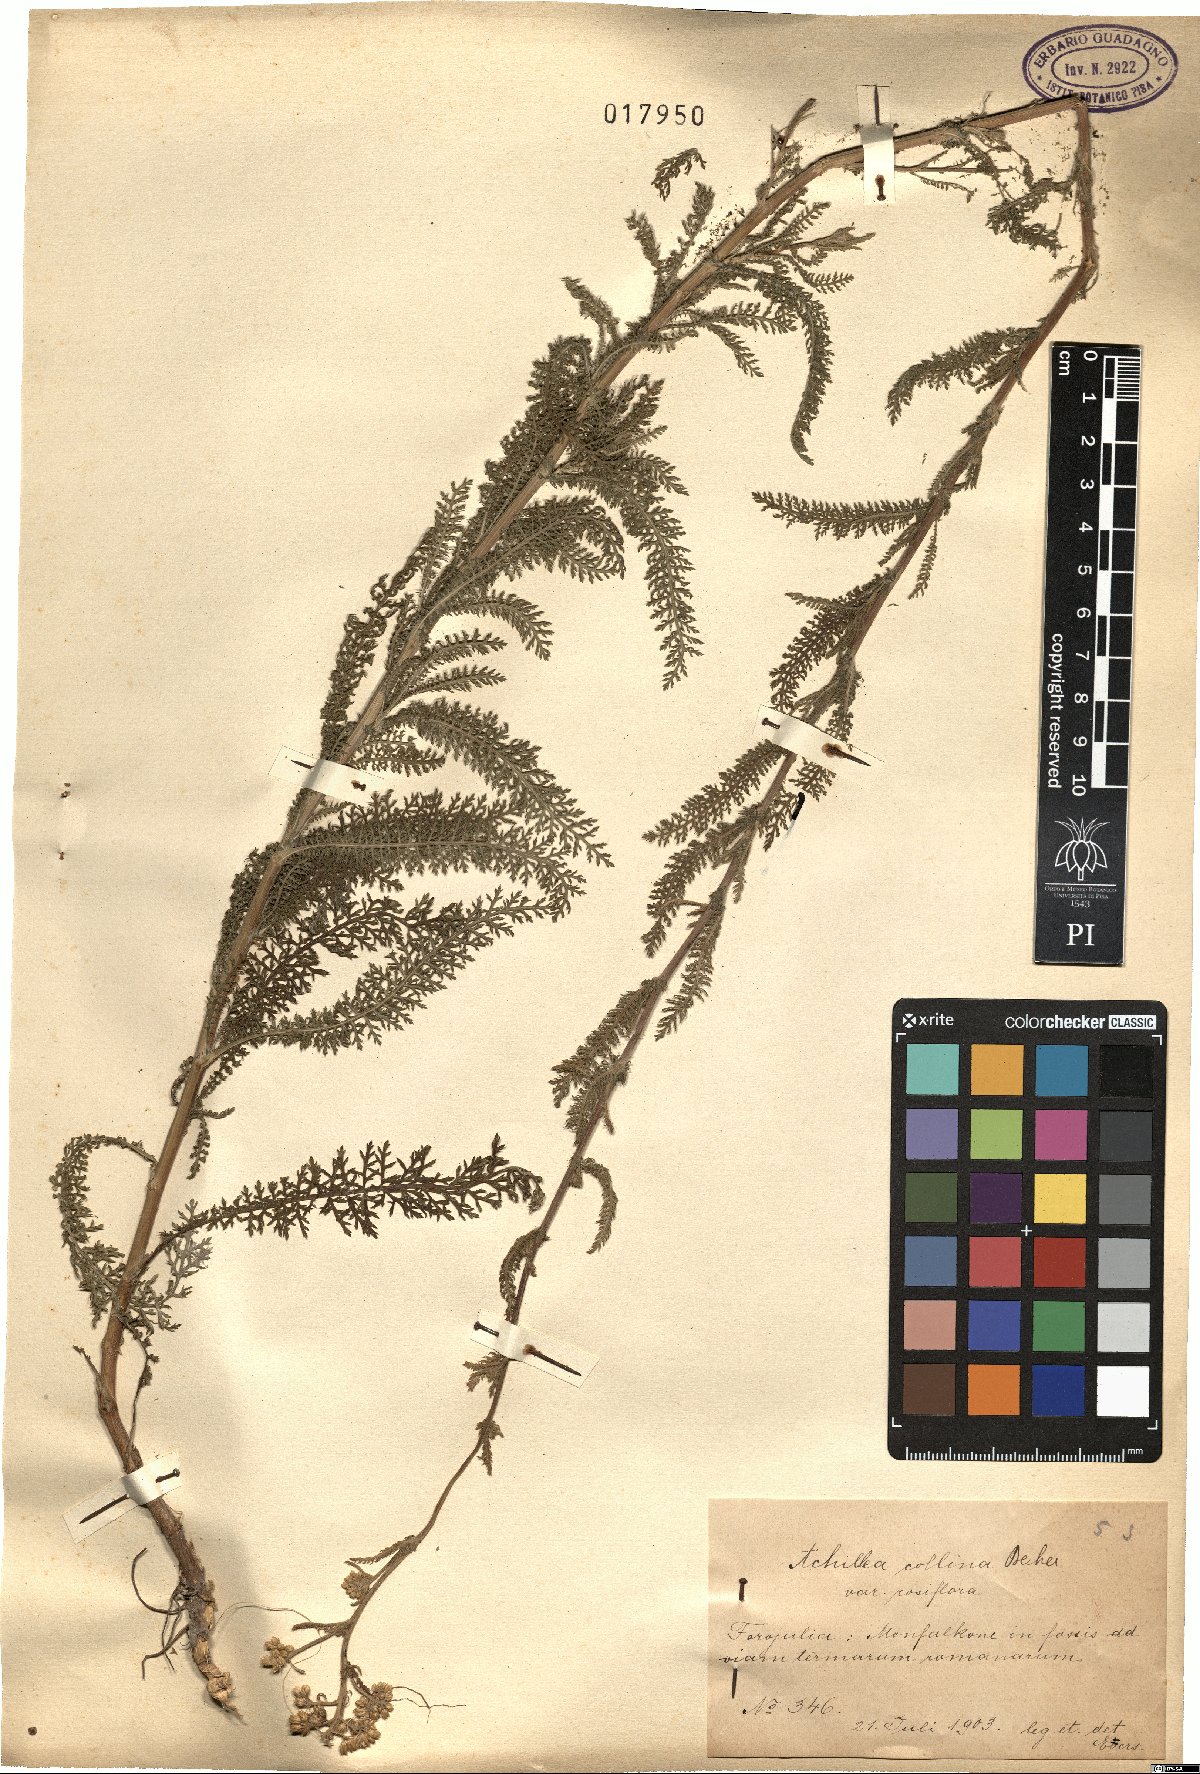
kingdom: Plantae
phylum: Tracheophyta
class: Magnoliopsida
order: Asterales
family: Asteraceae
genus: Achillea
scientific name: Achillea collina
